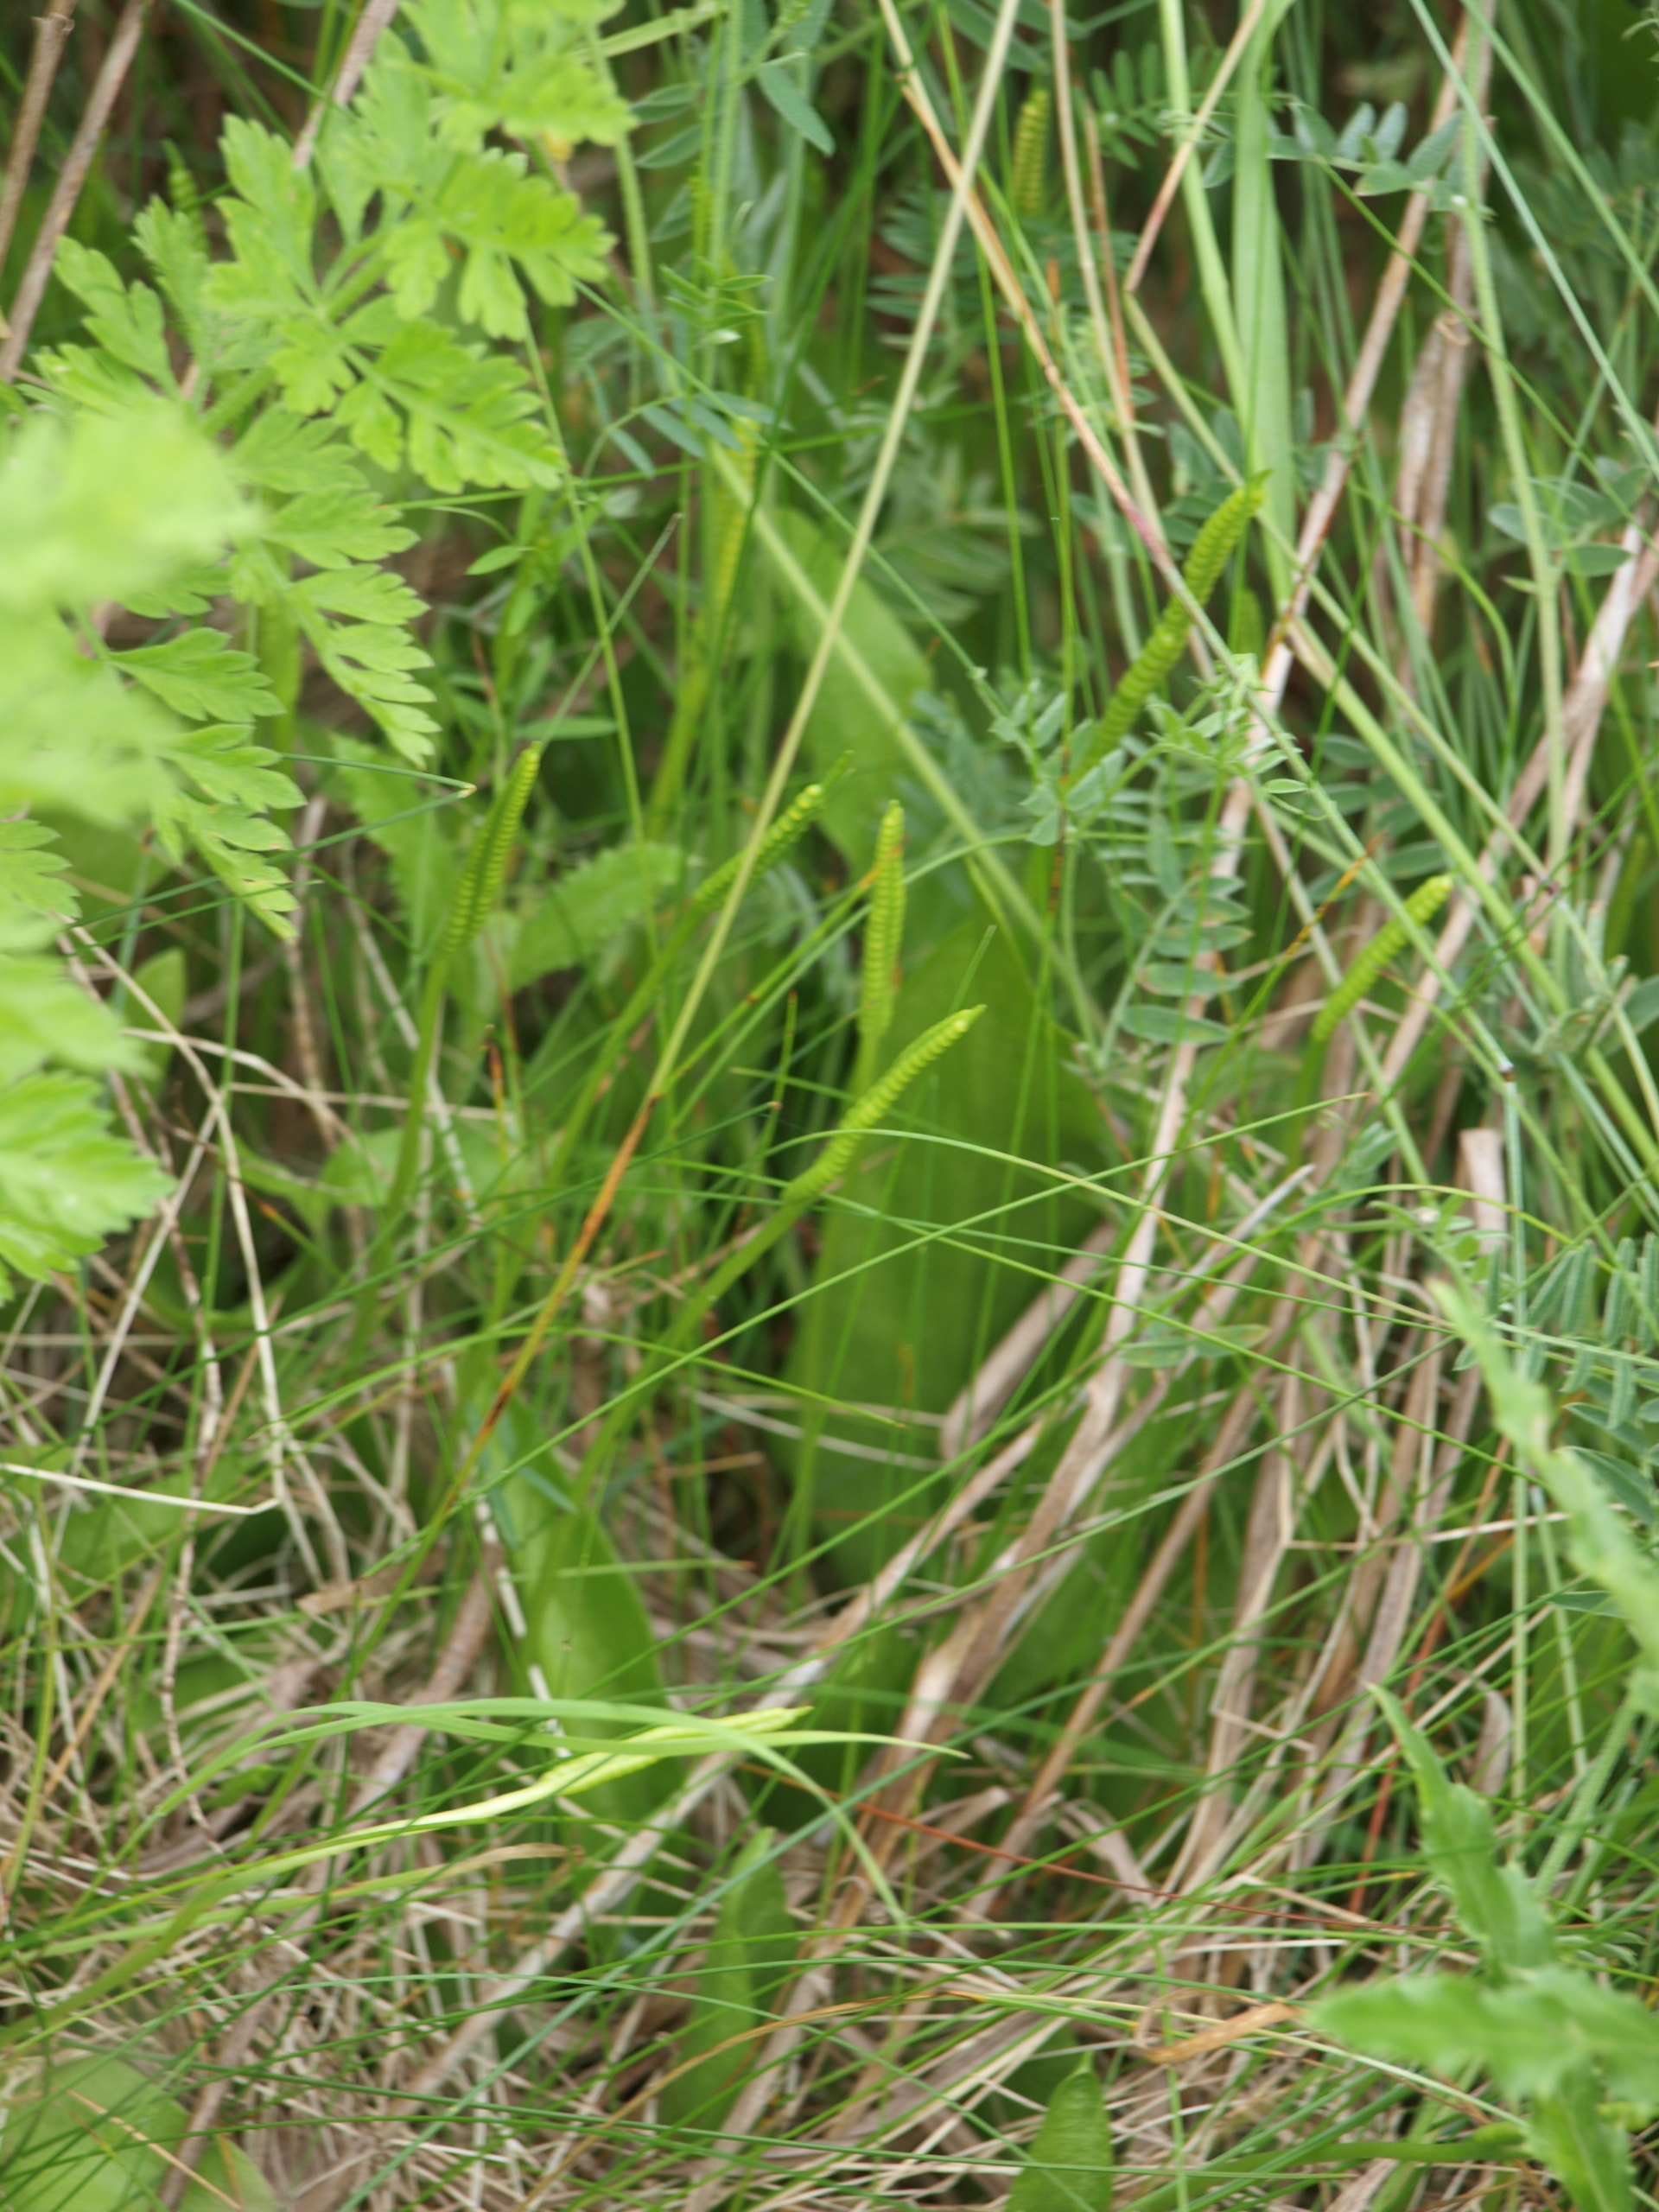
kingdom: Plantae
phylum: Tracheophyta
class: Polypodiopsida
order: Ophioglossales
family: Ophioglossaceae
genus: Ophioglossum
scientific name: Ophioglossum vulgatum
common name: Slangetunge
